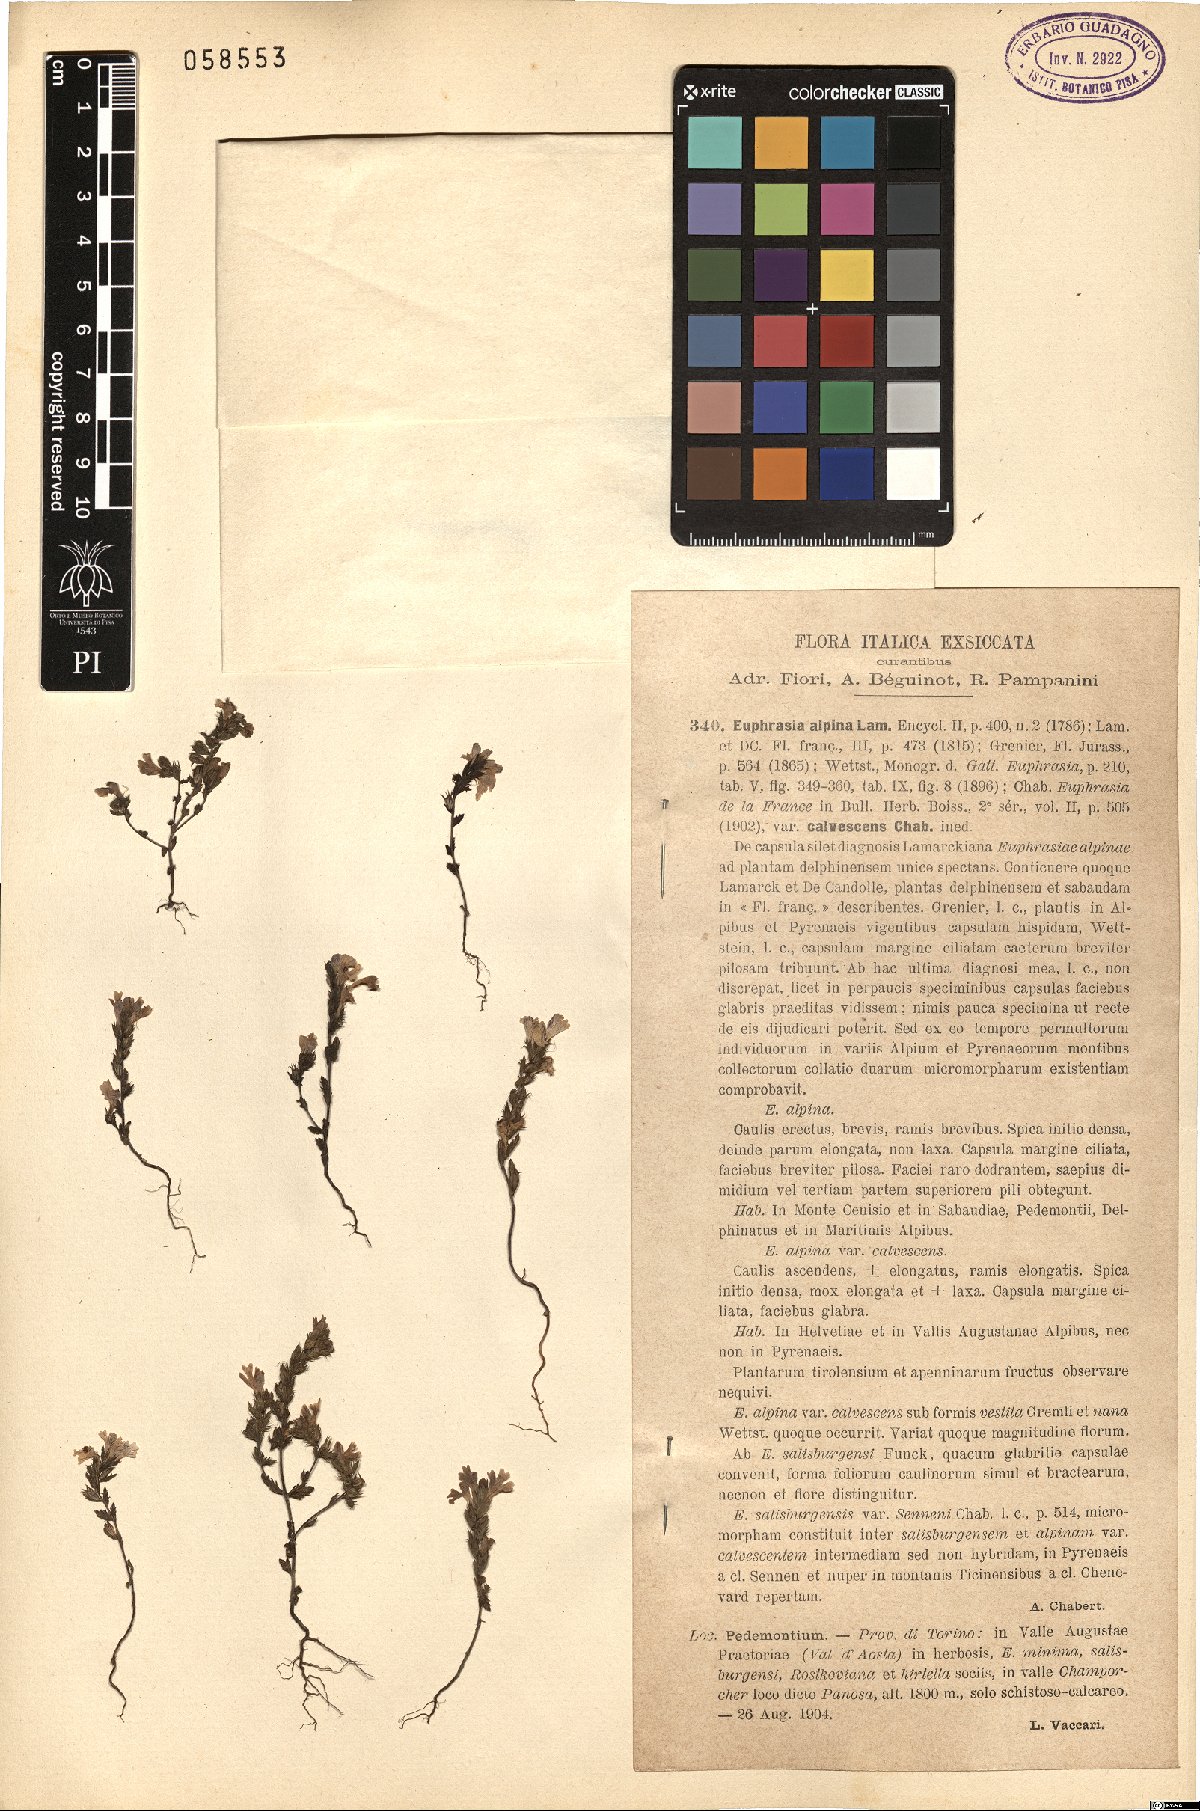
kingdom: Plantae
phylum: Tracheophyta
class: Magnoliopsida
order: Lamiales
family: Orobanchaceae
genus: Euphrasia
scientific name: Euphrasia alpina
